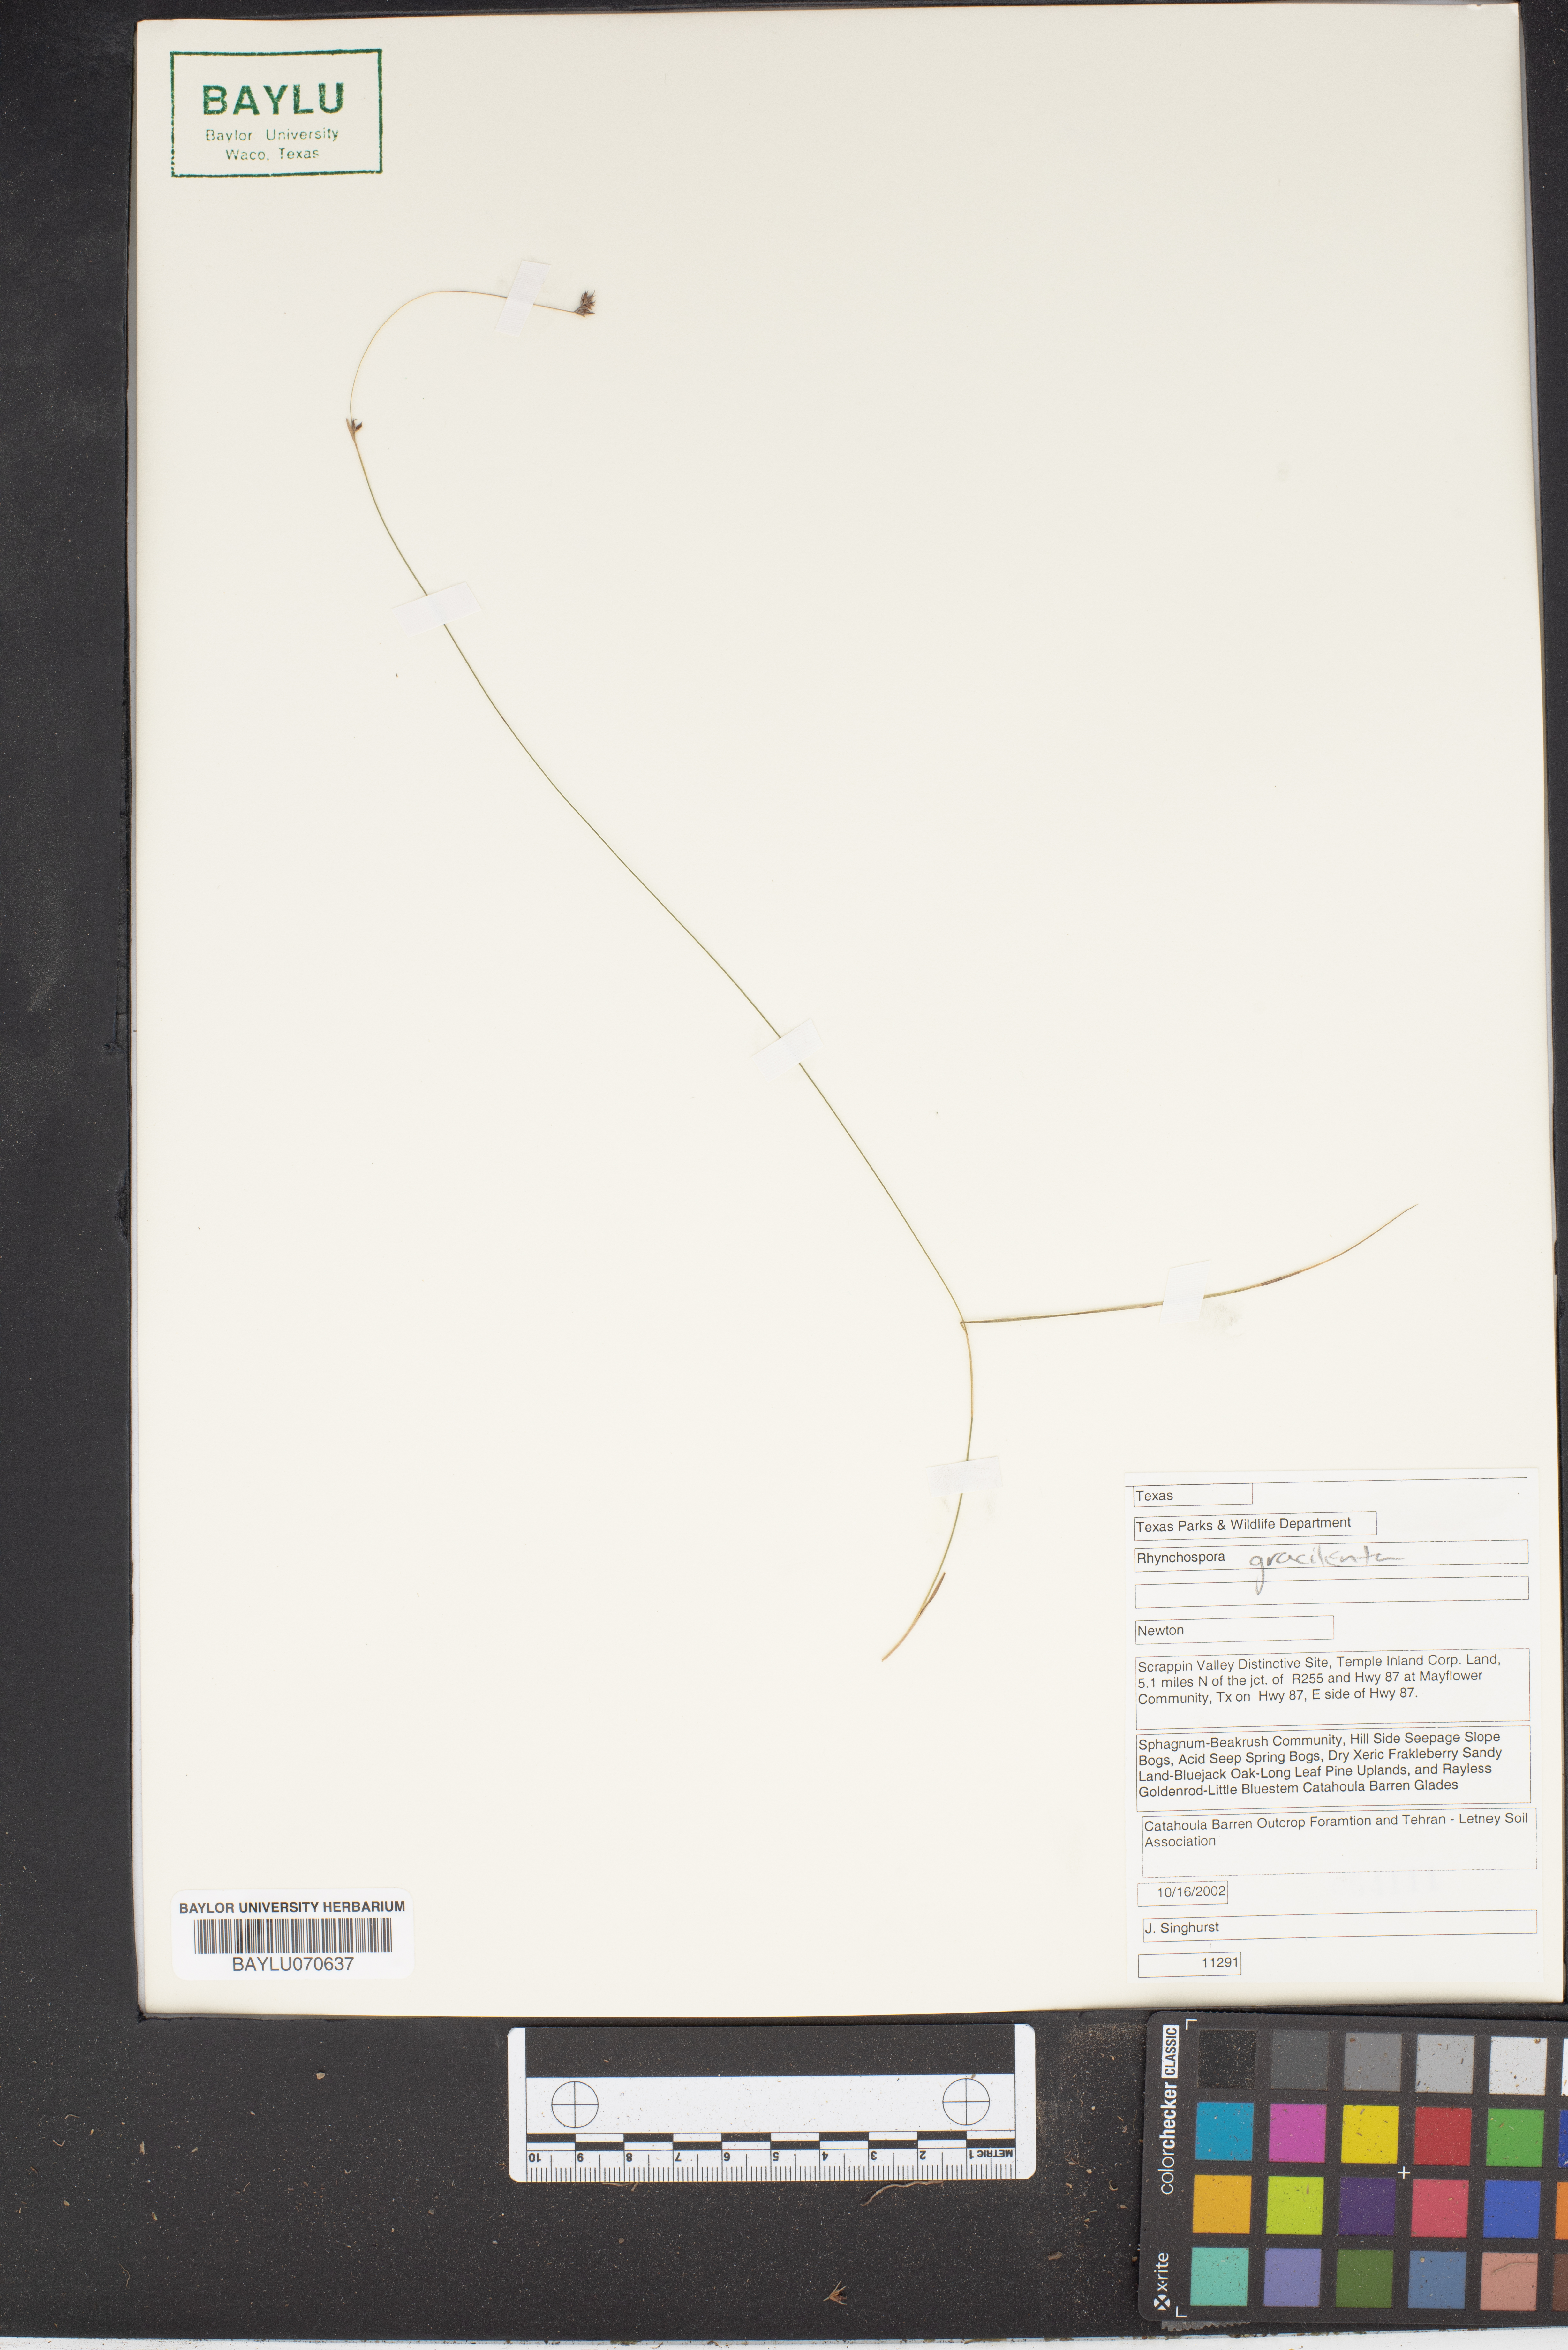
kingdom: Plantae
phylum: Tracheophyta
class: Liliopsida
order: Poales
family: Cyperaceae
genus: Rhynchospora
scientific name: Rhynchospora gracilenta
